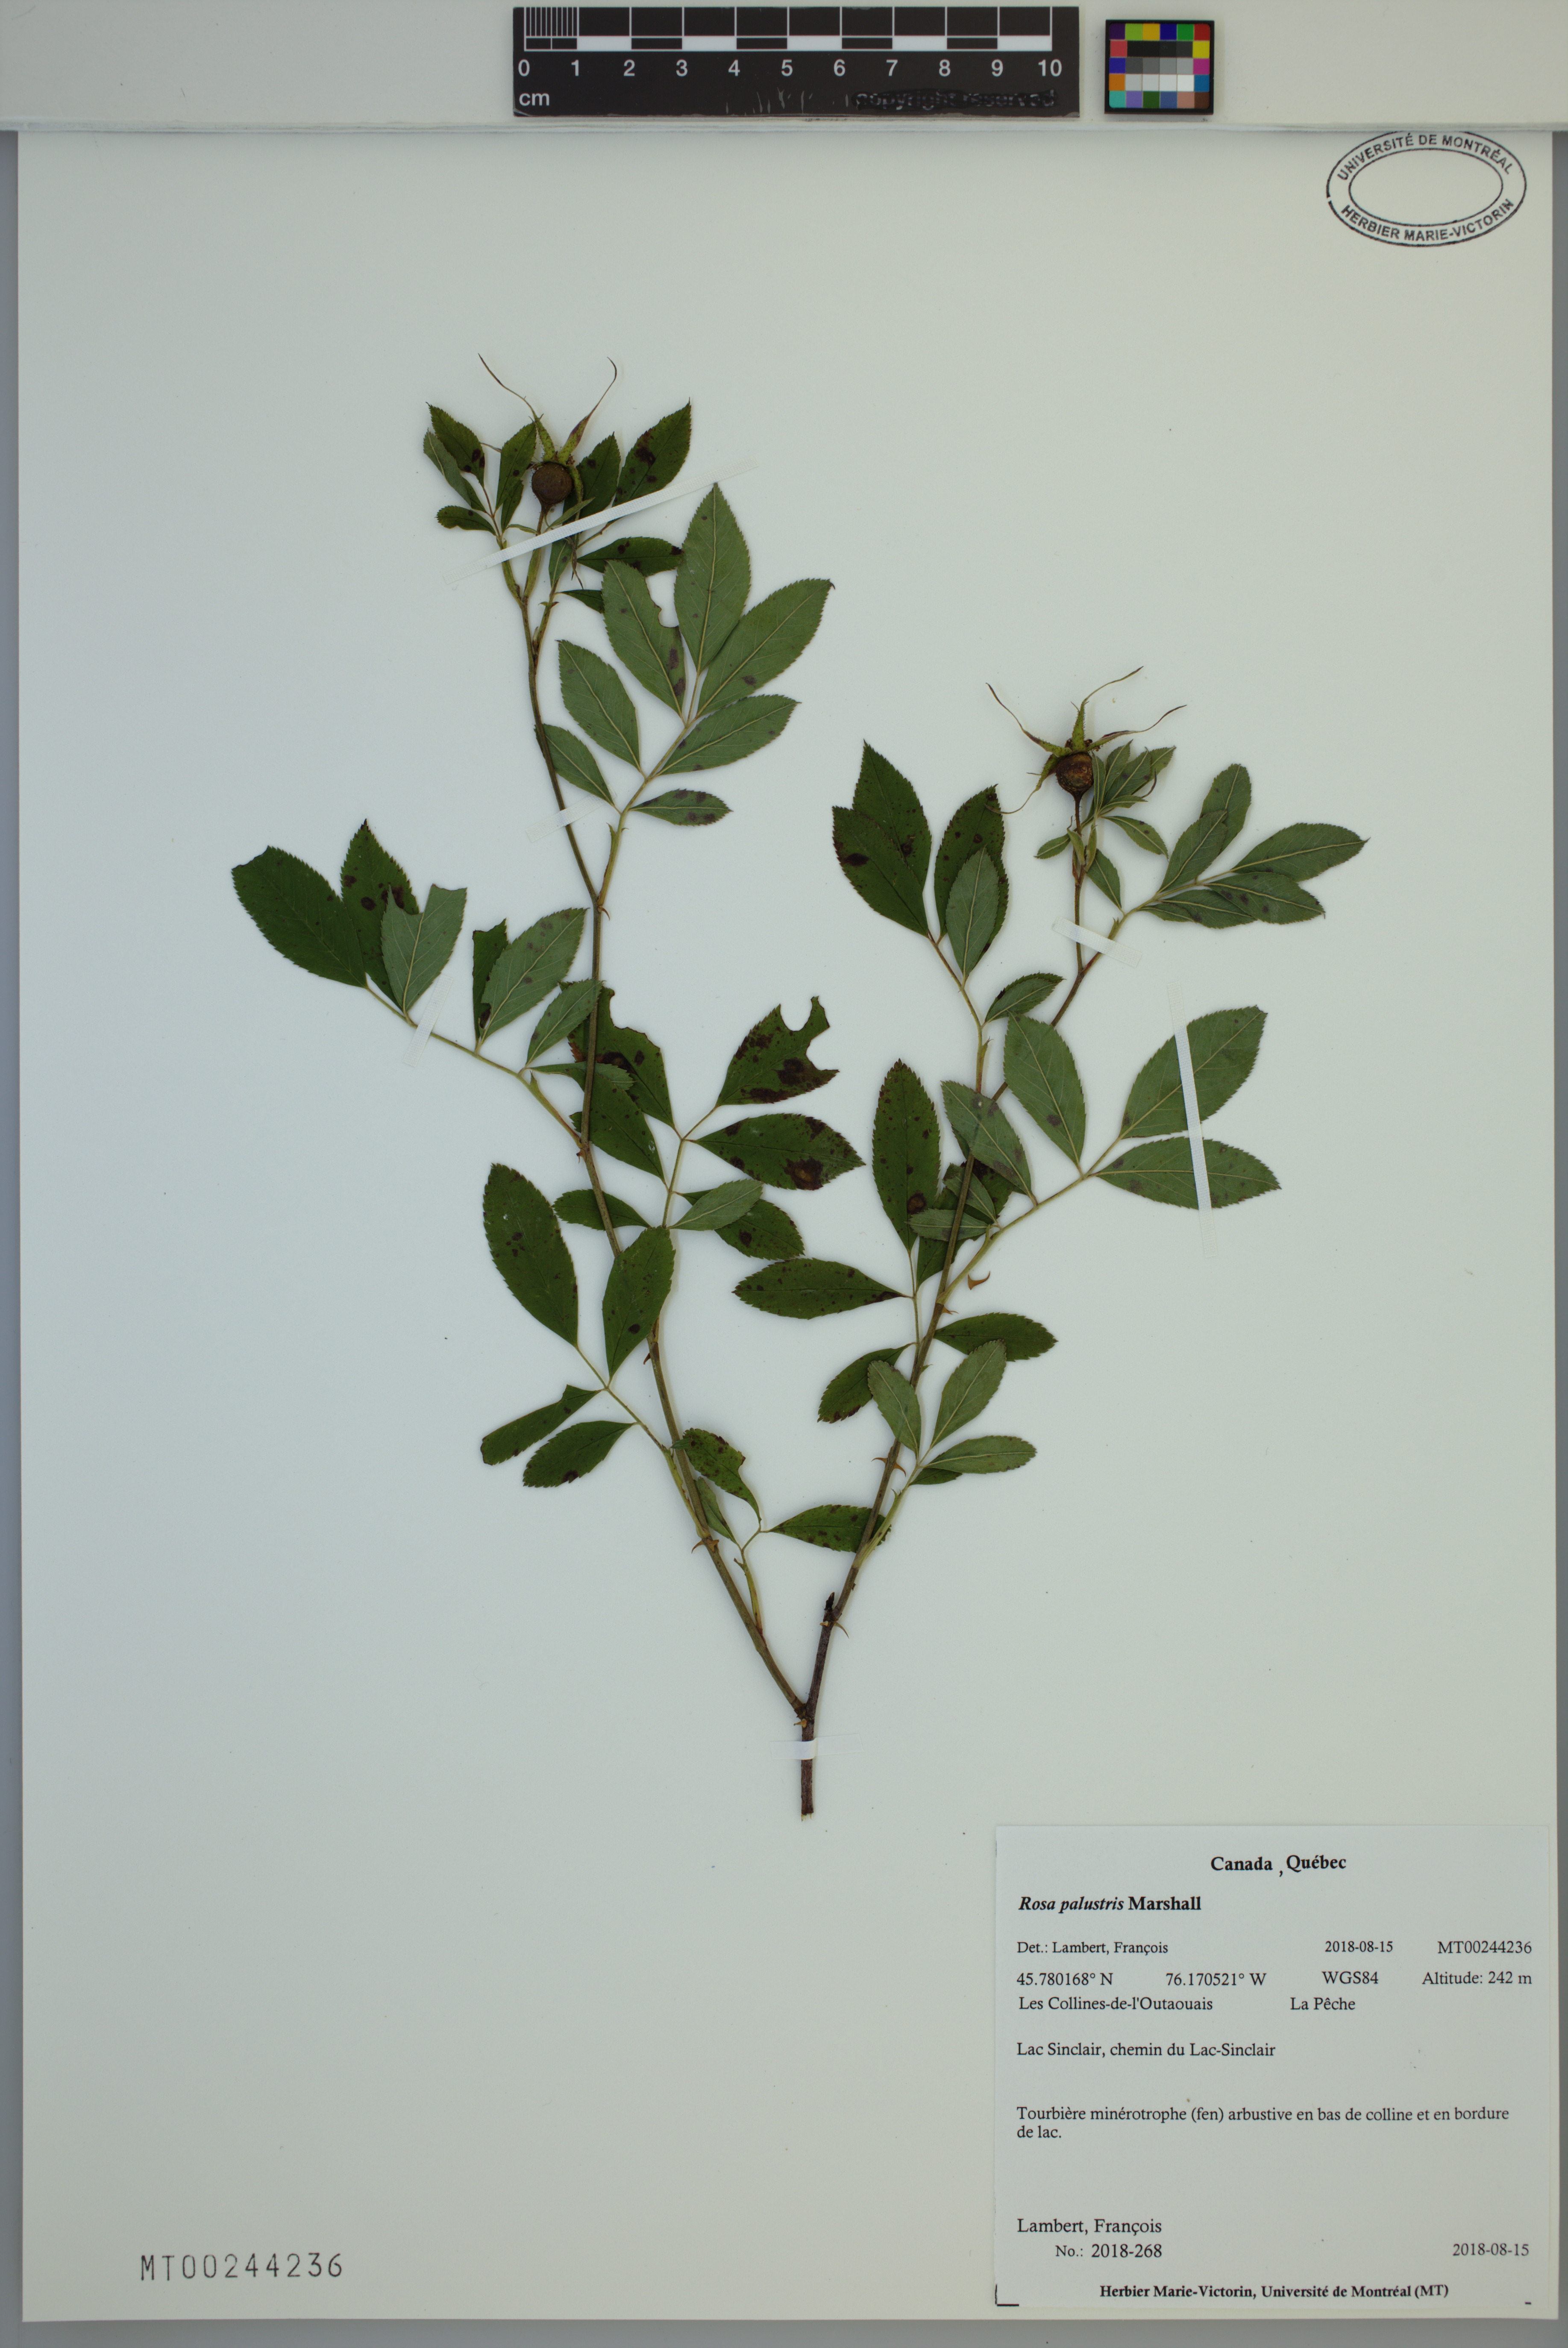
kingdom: Plantae
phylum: Tracheophyta
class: Magnoliopsida
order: Rosales
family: Rosaceae
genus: Rosa
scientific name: Rosa palustris
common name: Swamp rose
